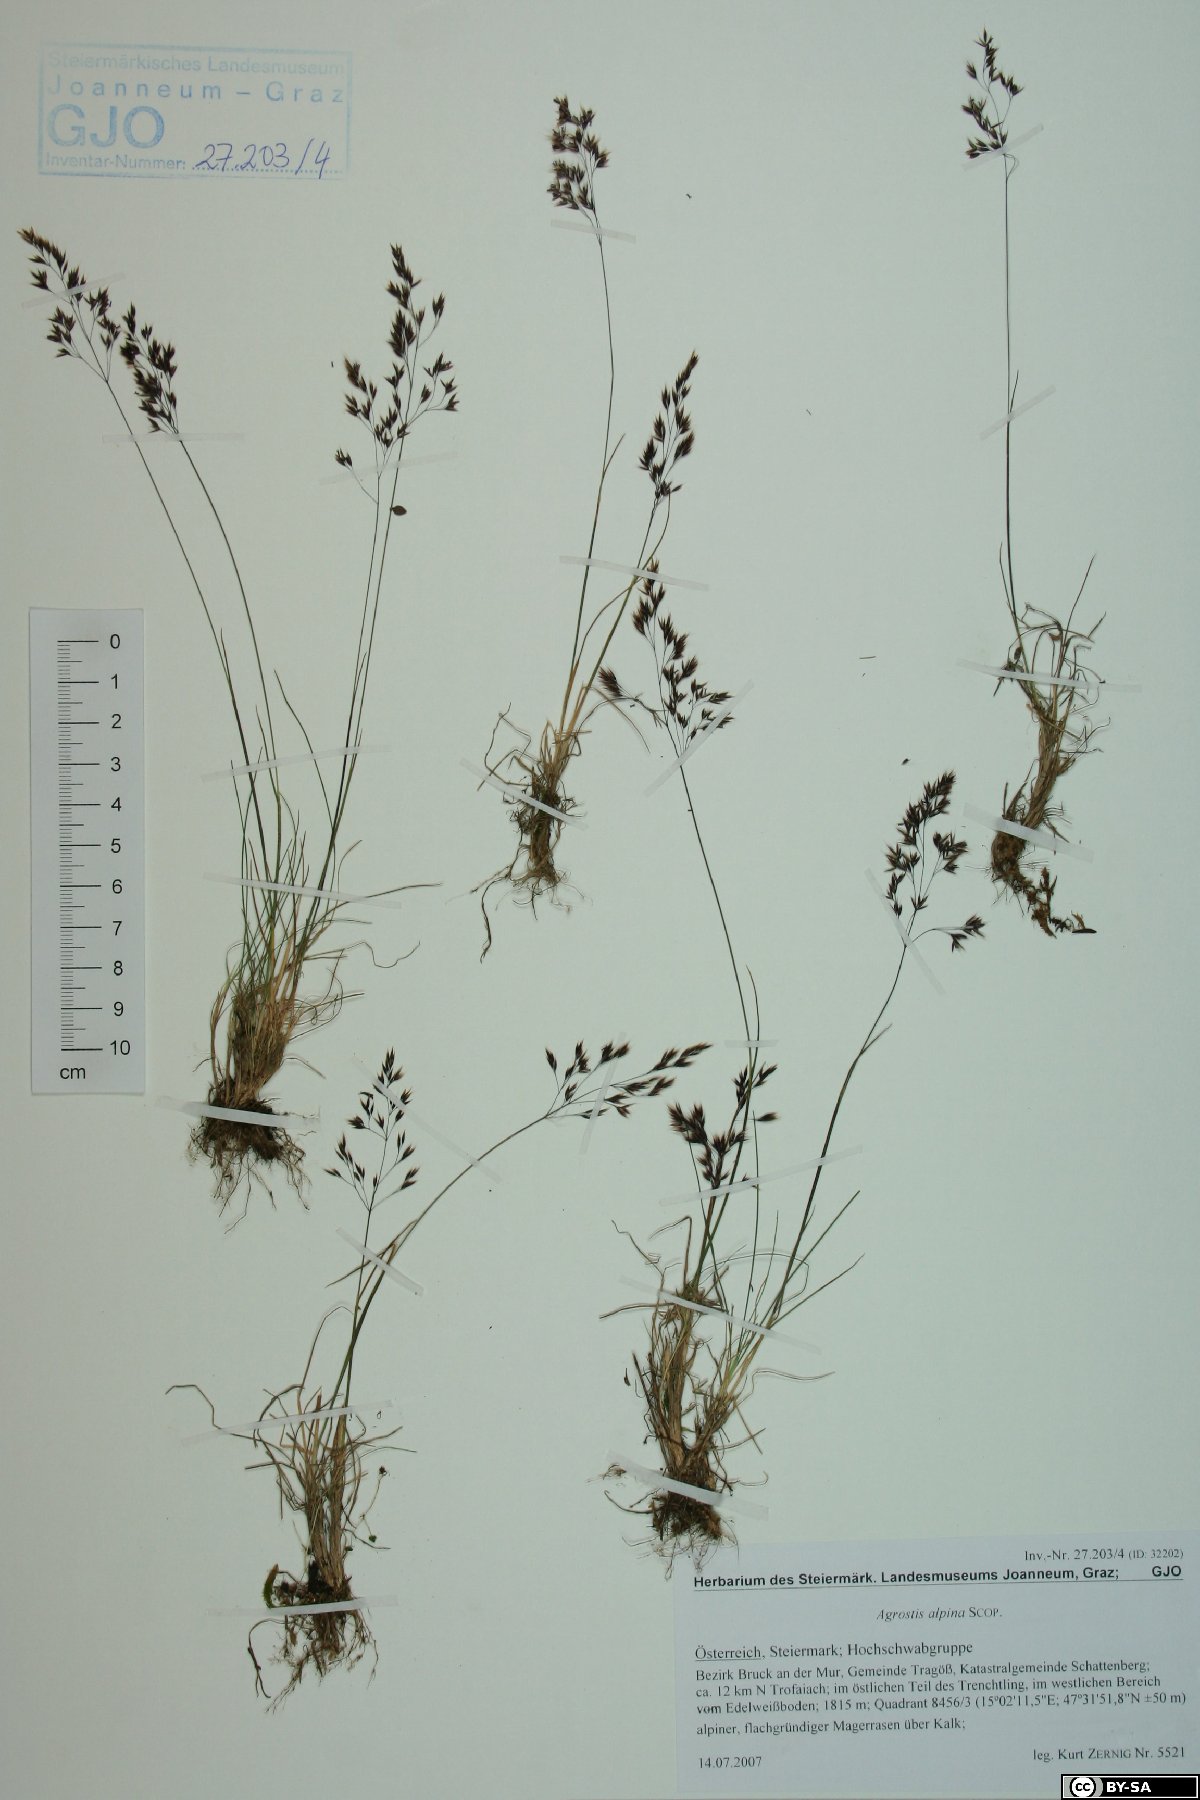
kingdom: Plantae
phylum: Tracheophyta
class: Liliopsida
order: Poales
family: Poaceae
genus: Alpagrostis
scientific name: Alpagrostis alpina
